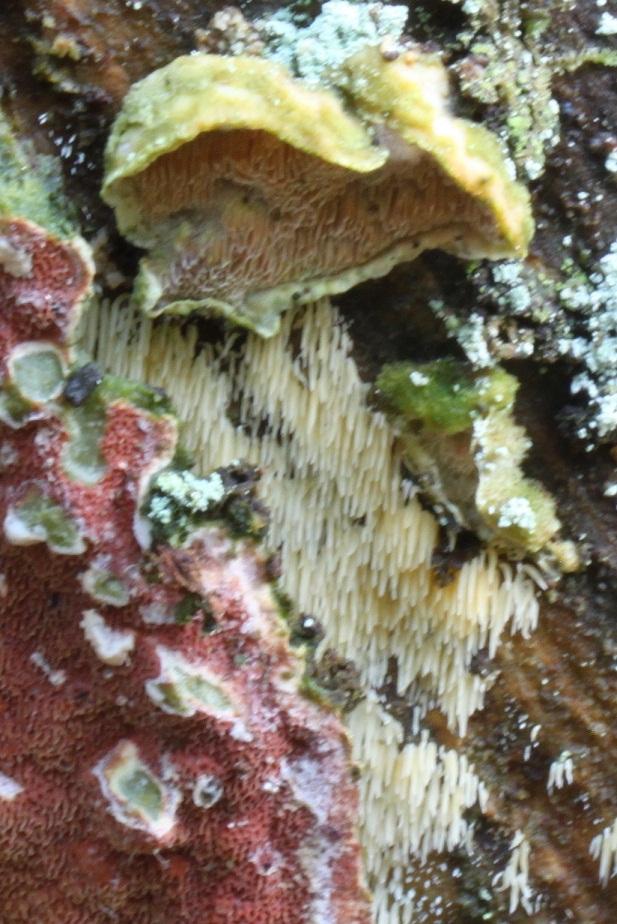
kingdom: Fungi
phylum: Basidiomycota
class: Agaricomycetes
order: Polyporales
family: Incrustoporiaceae
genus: Skeletocutis
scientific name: Skeletocutis amorpha
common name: orange krystalporesvamp
